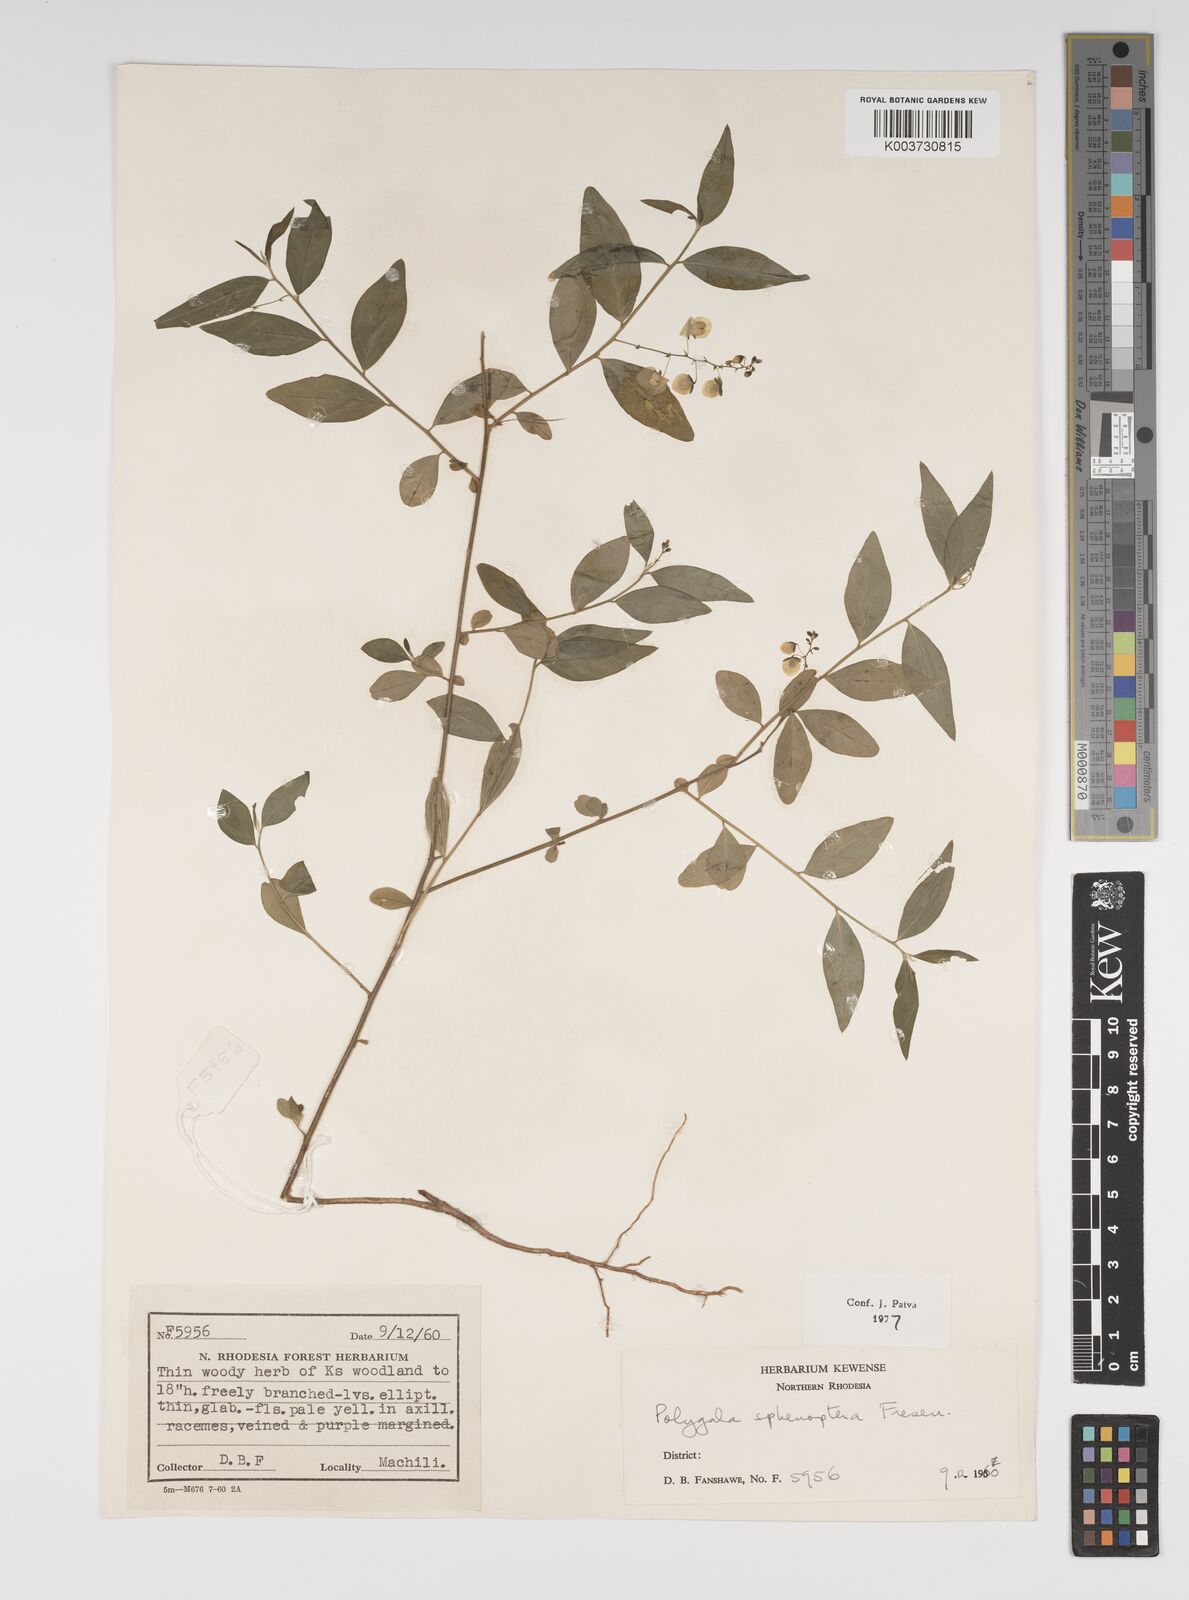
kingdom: Plantae
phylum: Tracheophyta
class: Magnoliopsida
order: Fabales
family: Polygalaceae
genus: Polygala
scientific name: Polygala sphenoptera
